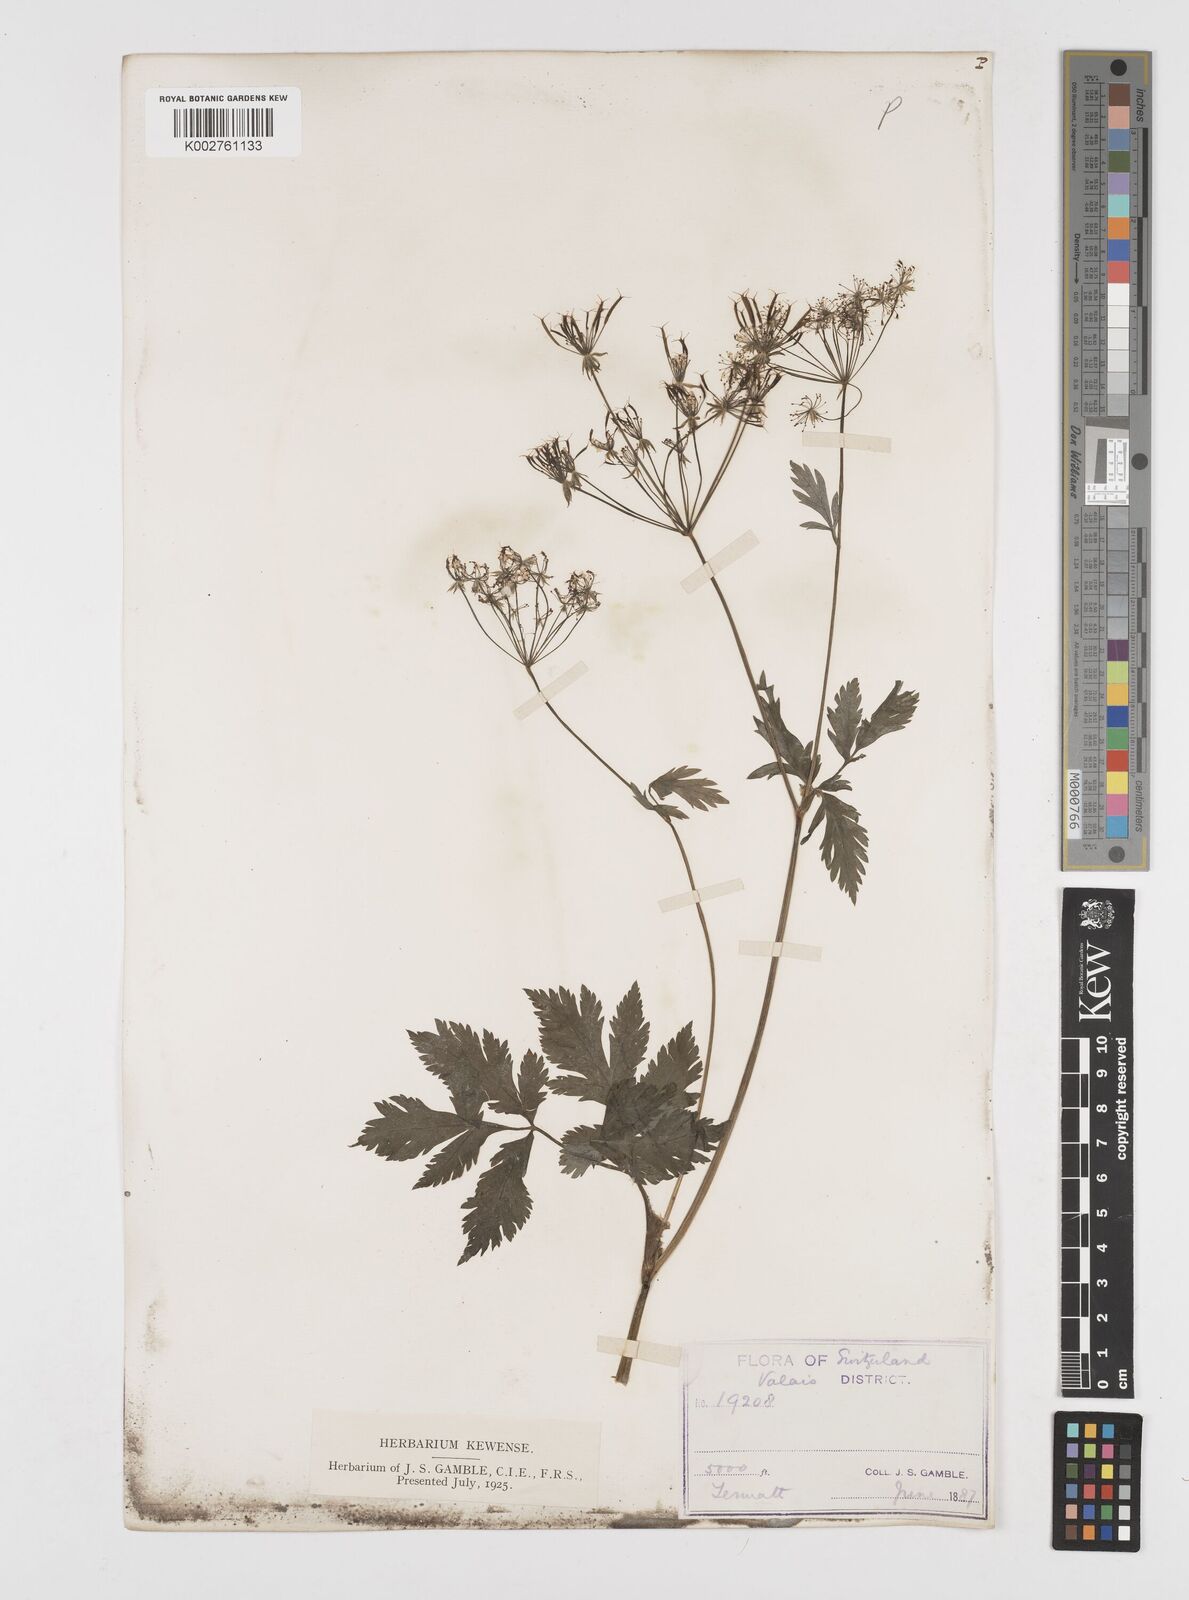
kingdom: Plantae
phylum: Tracheophyta
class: Magnoliopsida
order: Apiales
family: Apiaceae
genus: Chaerophyllum
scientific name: Chaerophyllum hirsutum
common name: Hairy chervil
